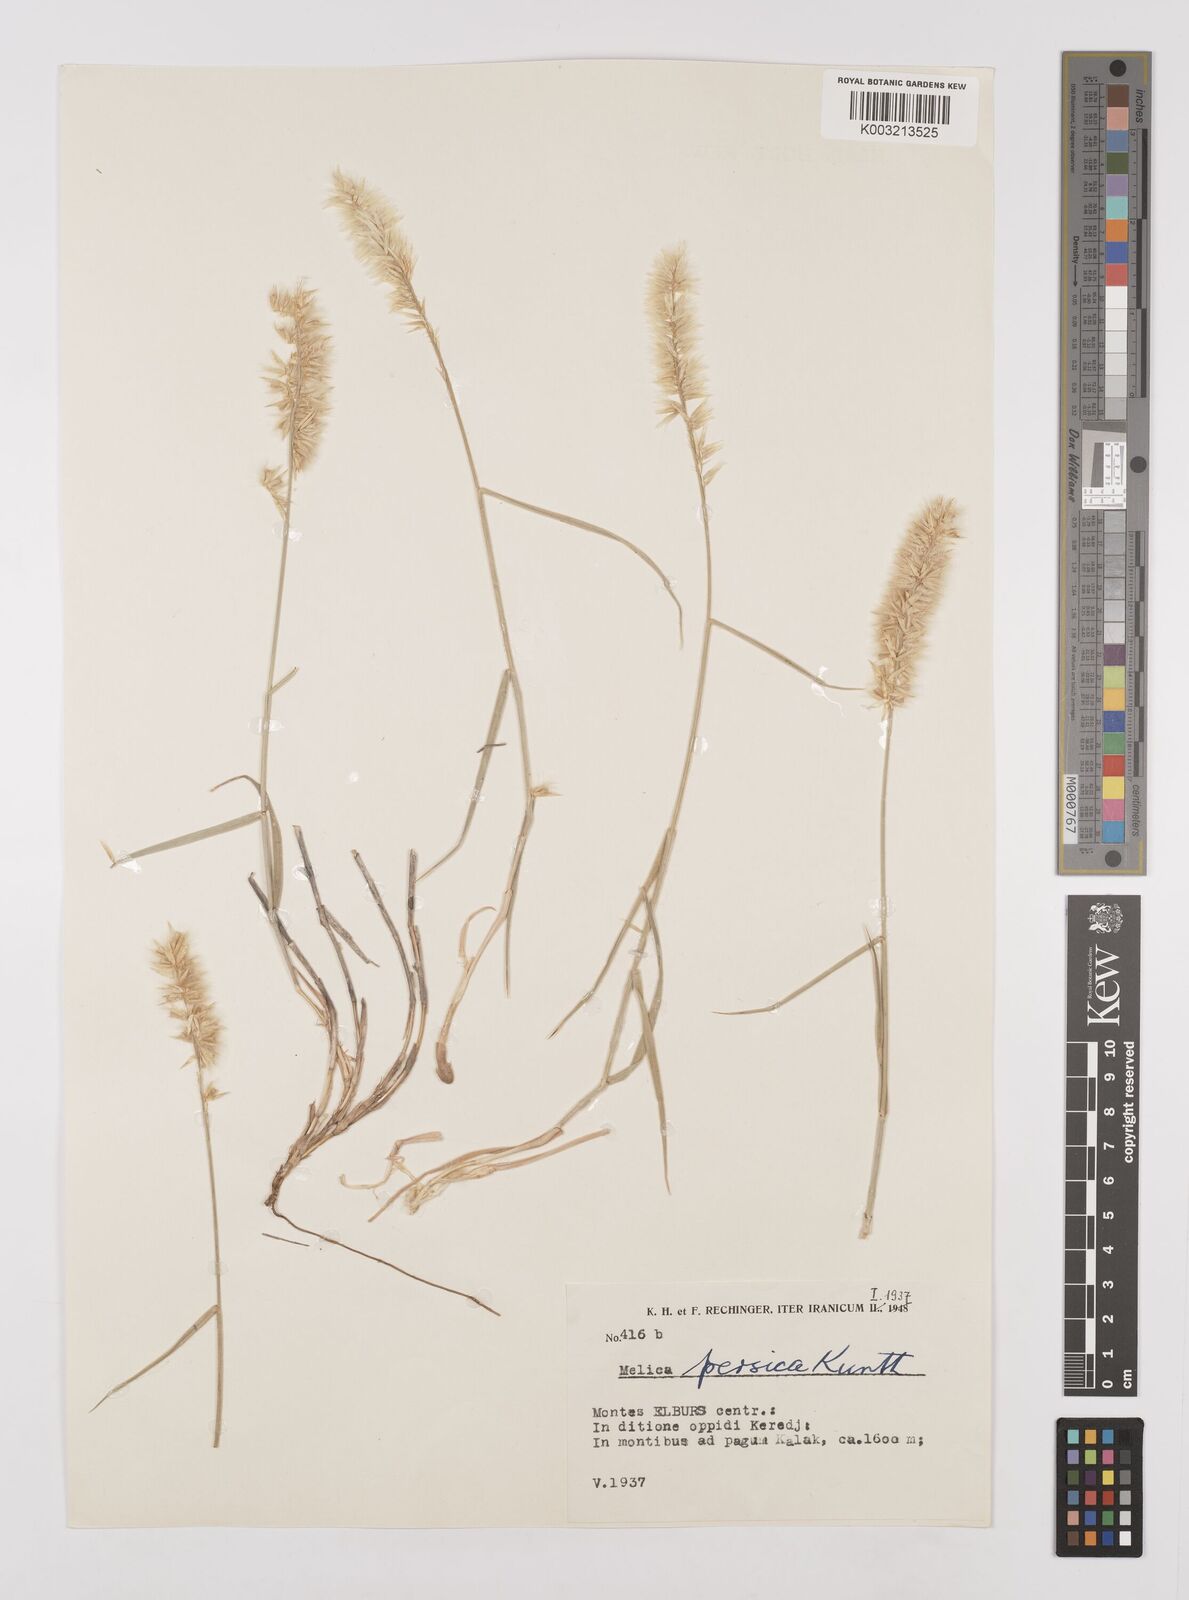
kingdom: Plantae
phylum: Tracheophyta
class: Liliopsida
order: Poales
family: Poaceae
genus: Melica
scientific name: Melica persica
